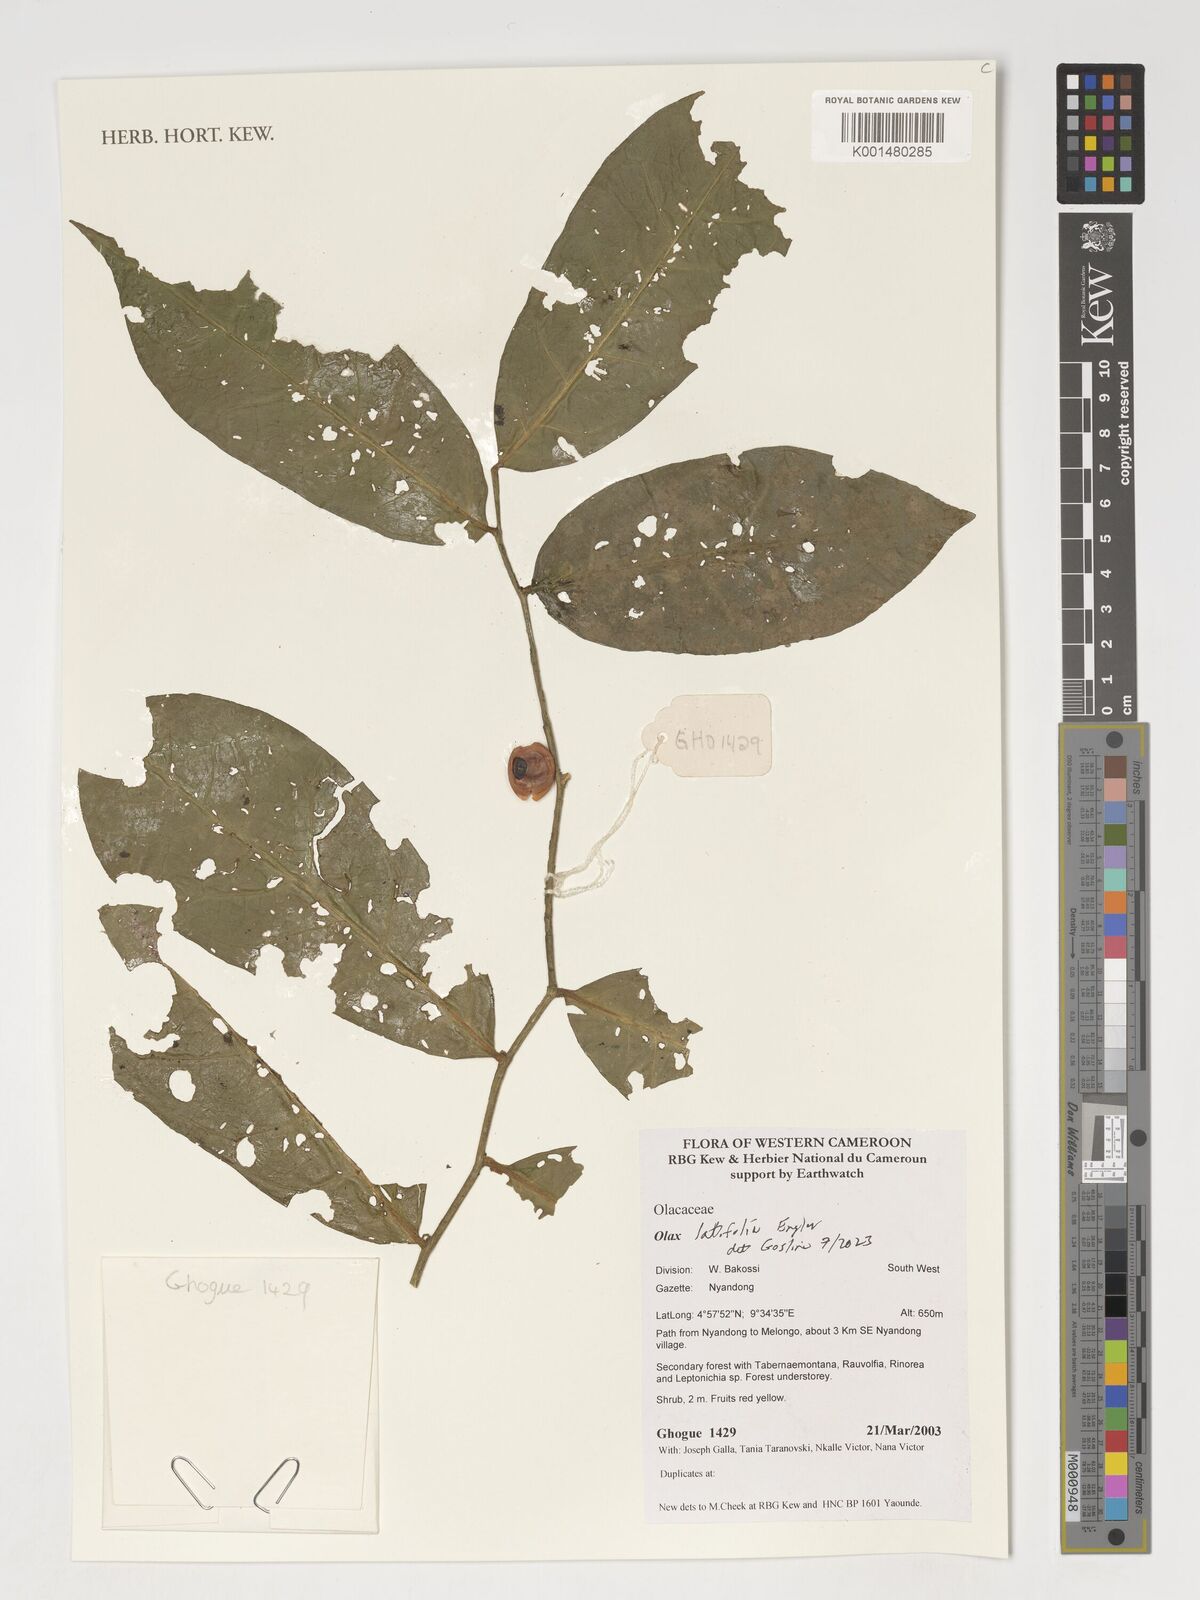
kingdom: Plantae
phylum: Tracheophyta
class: Magnoliopsida
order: Santalales
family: Olacaceae
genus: Olax
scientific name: Olax latifolia
